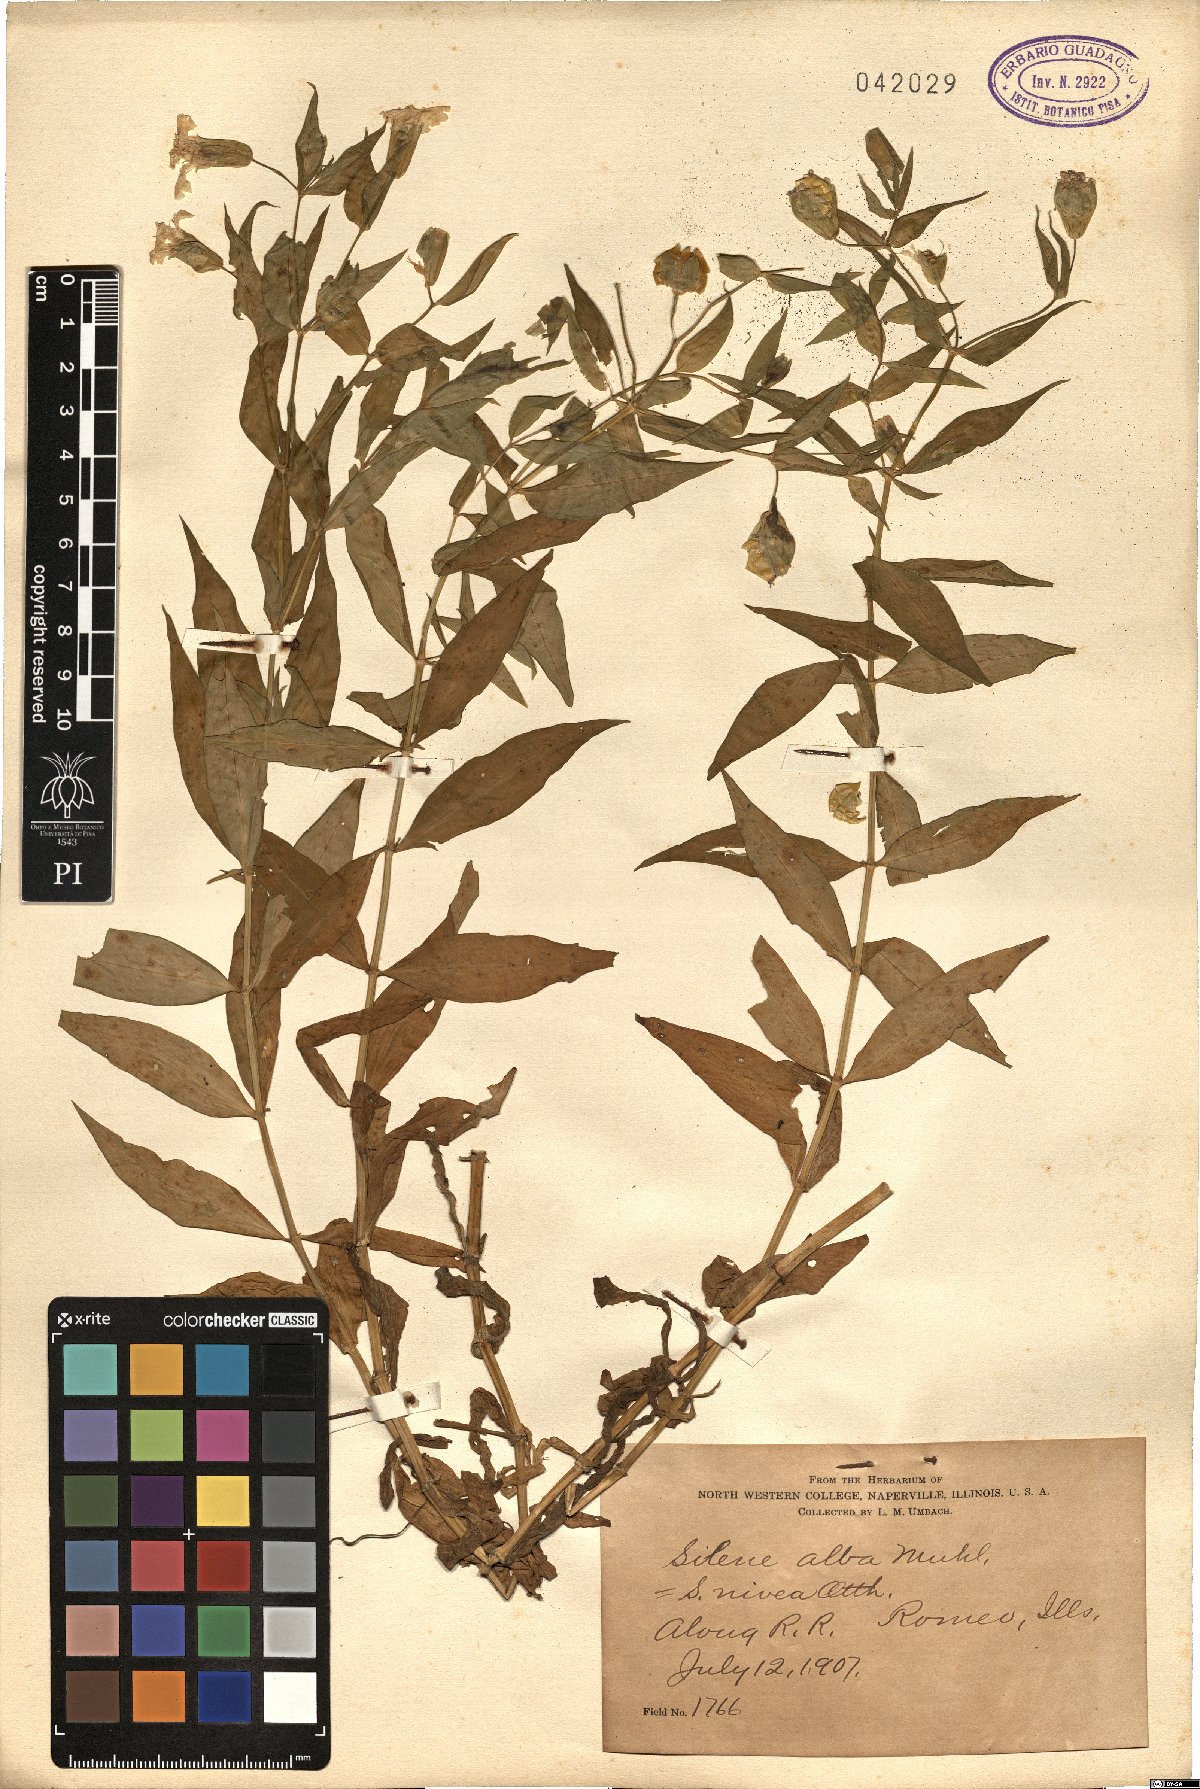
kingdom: Plantae
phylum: Tracheophyta
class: Magnoliopsida
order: Caryophyllales
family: Caryophyllaceae
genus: Silene
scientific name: Silene latifolia
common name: White campion
